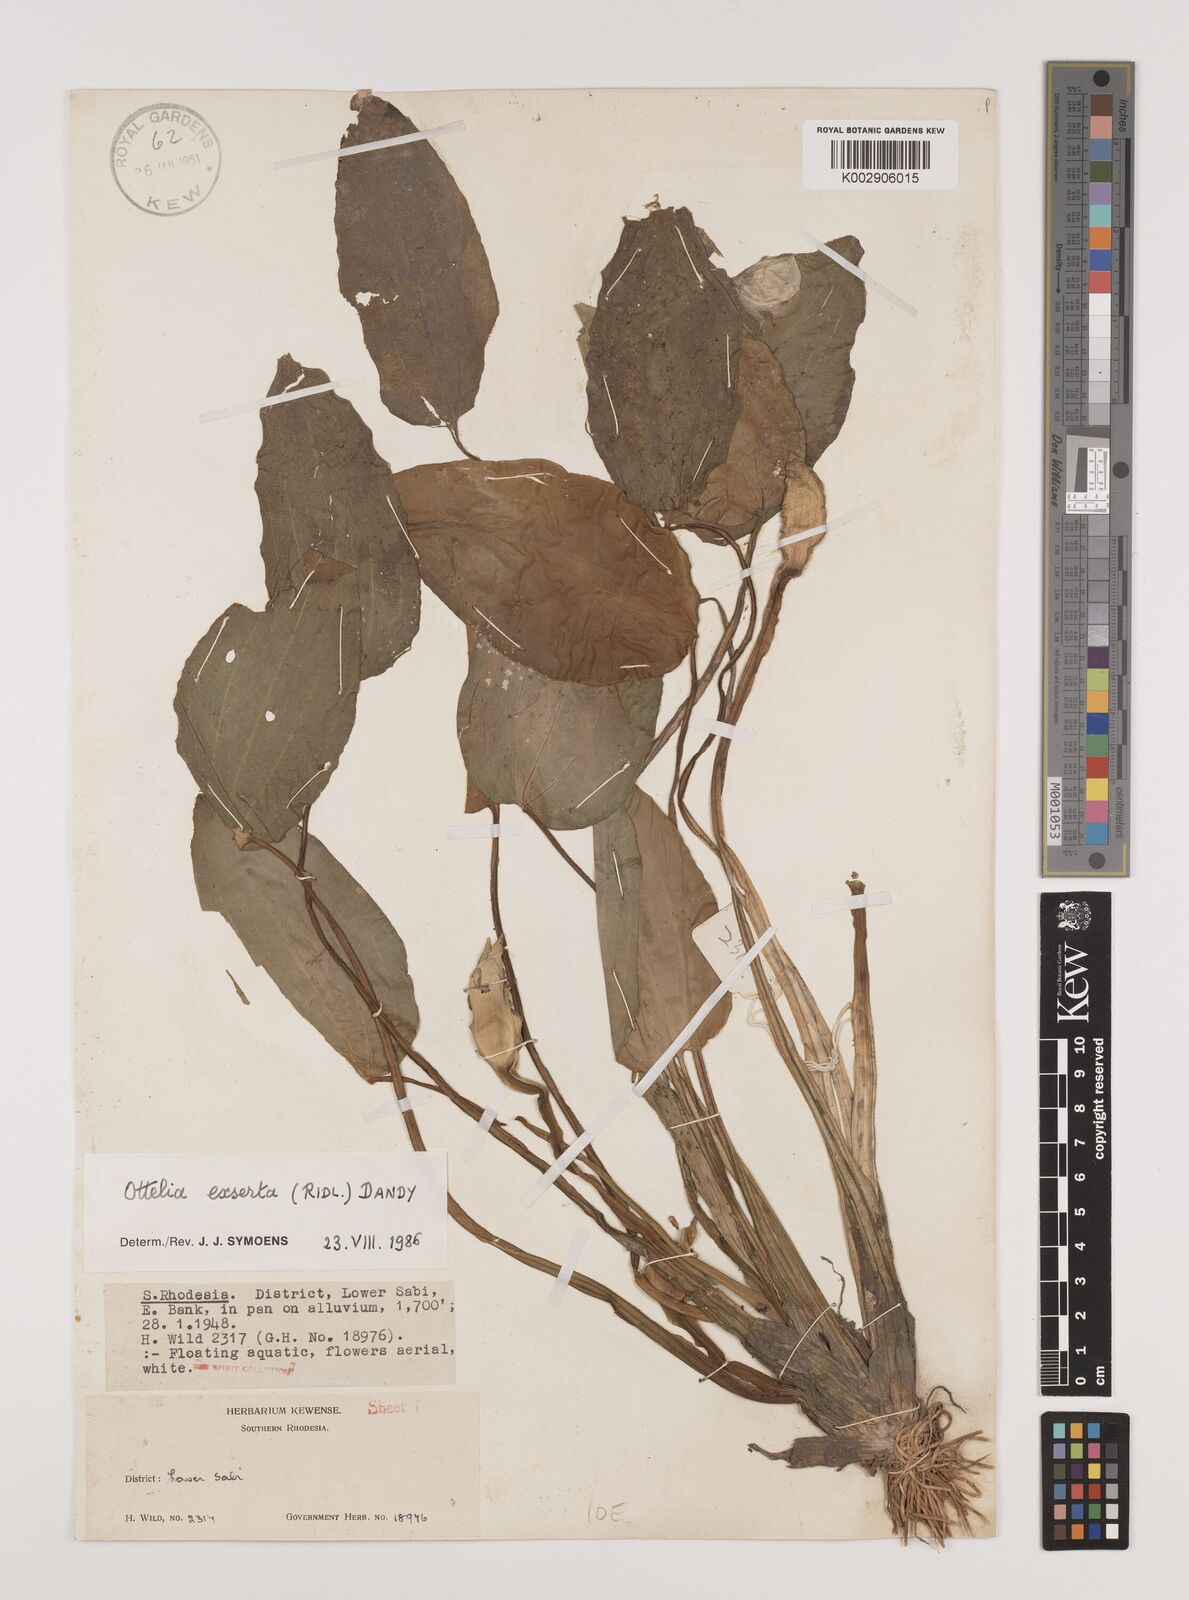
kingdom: Plantae
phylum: Tracheophyta
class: Liliopsida
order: Alismatales
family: Hydrocharitaceae
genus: Ottelia
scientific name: Ottelia exserta
